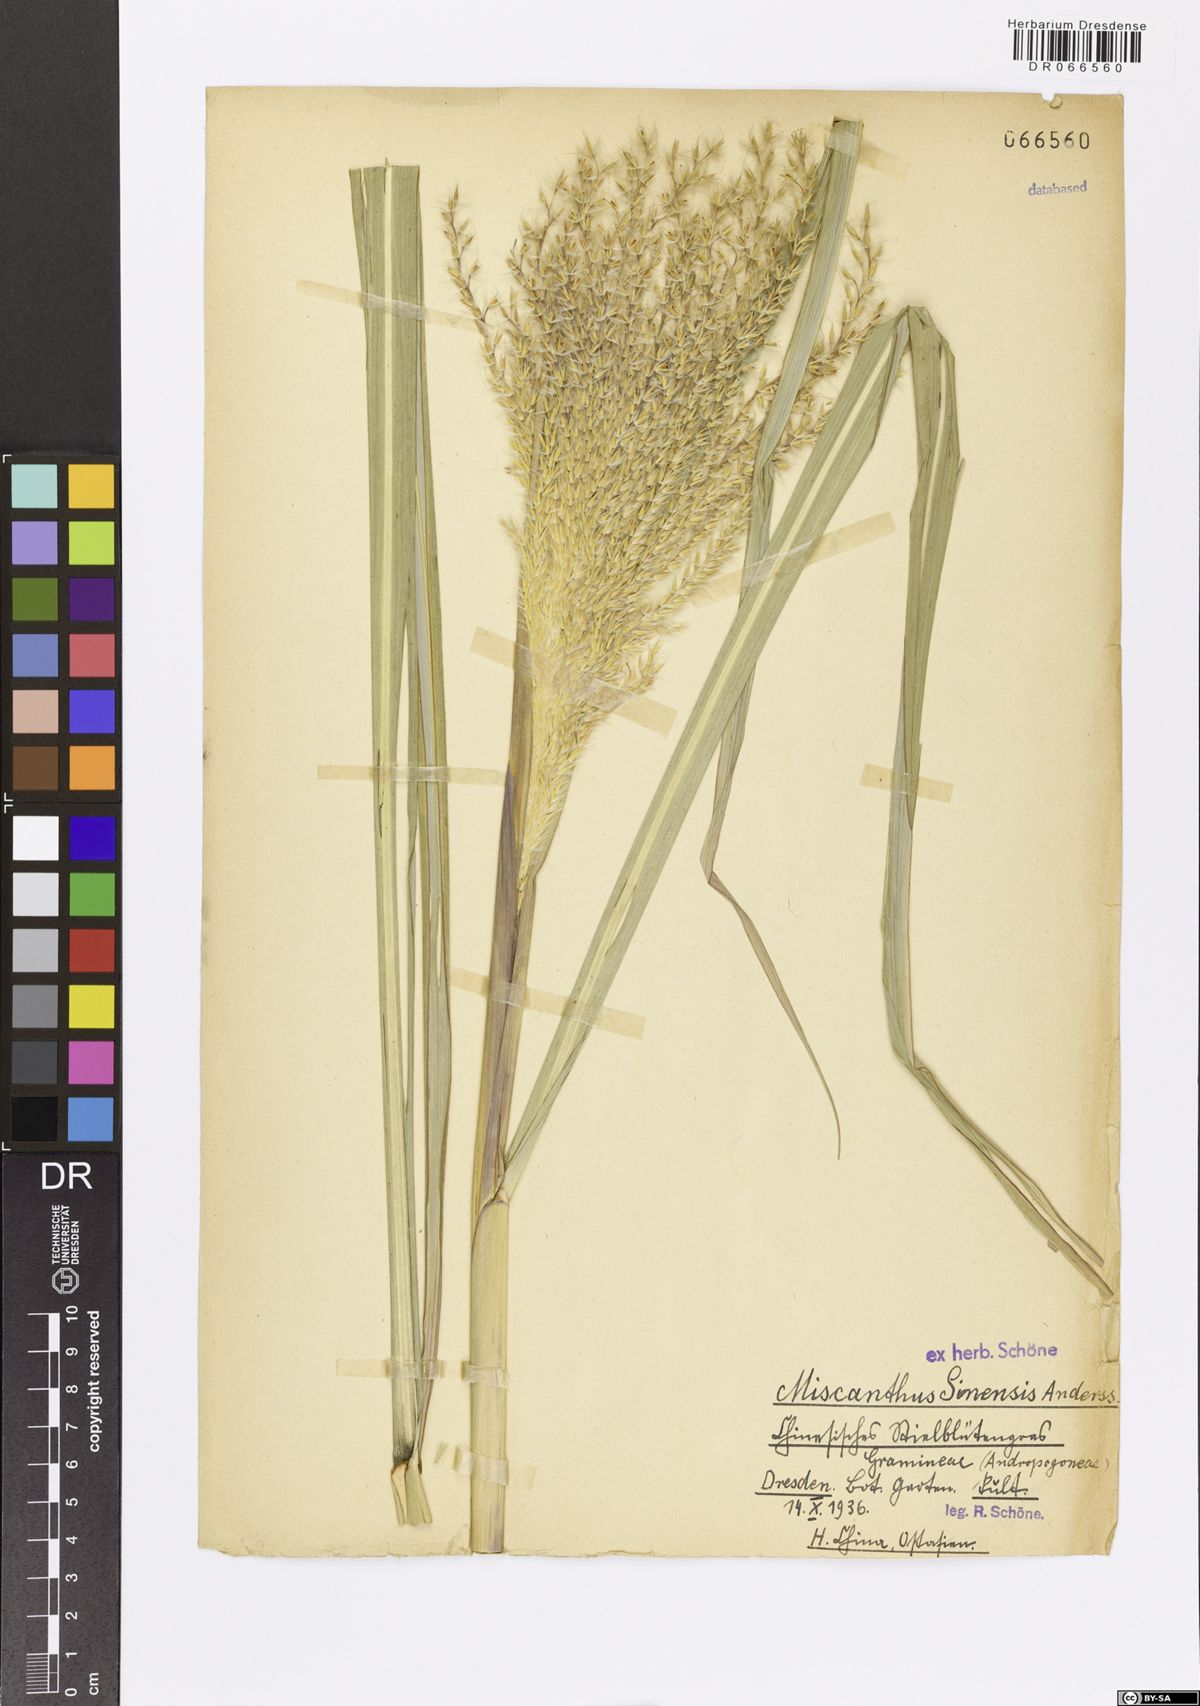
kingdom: Plantae
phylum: Tracheophyta
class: Liliopsida
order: Poales
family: Poaceae
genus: Miscanthus
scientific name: Miscanthus sinensis
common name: Chinese silvergrass
